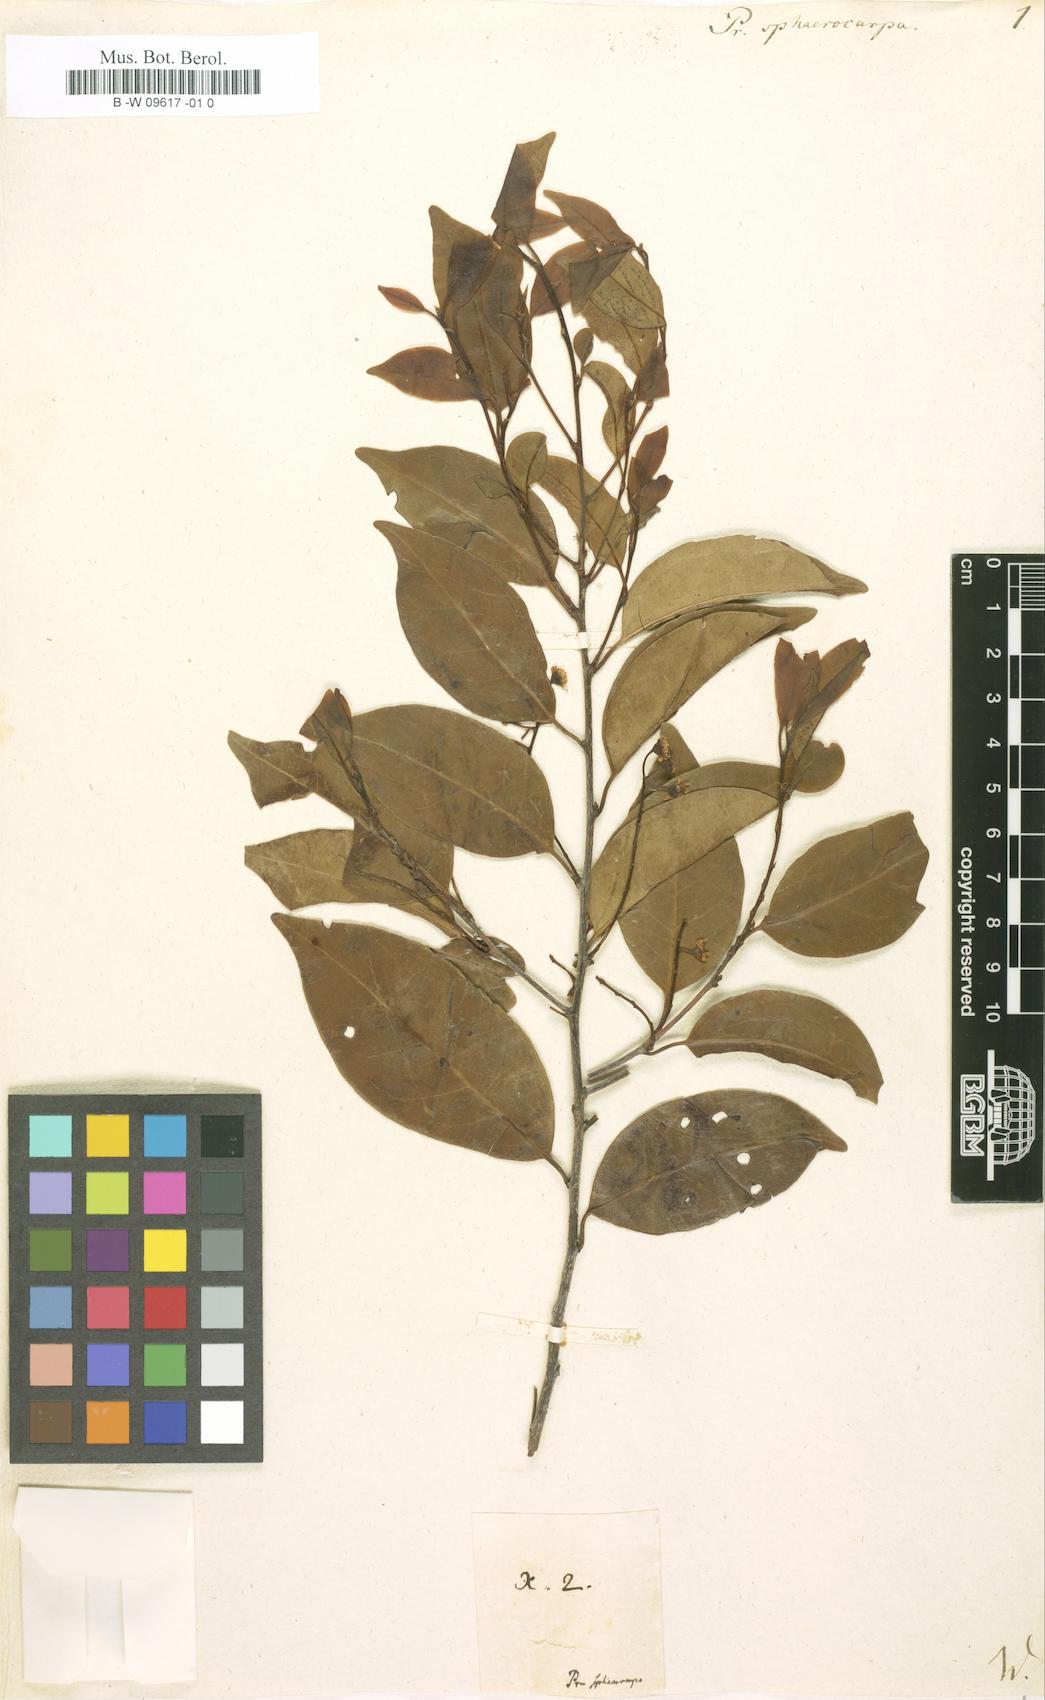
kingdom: Plantae
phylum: Tracheophyta
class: Magnoliopsida
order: Rosales
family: Rosaceae
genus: Prunus
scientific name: Prunus
